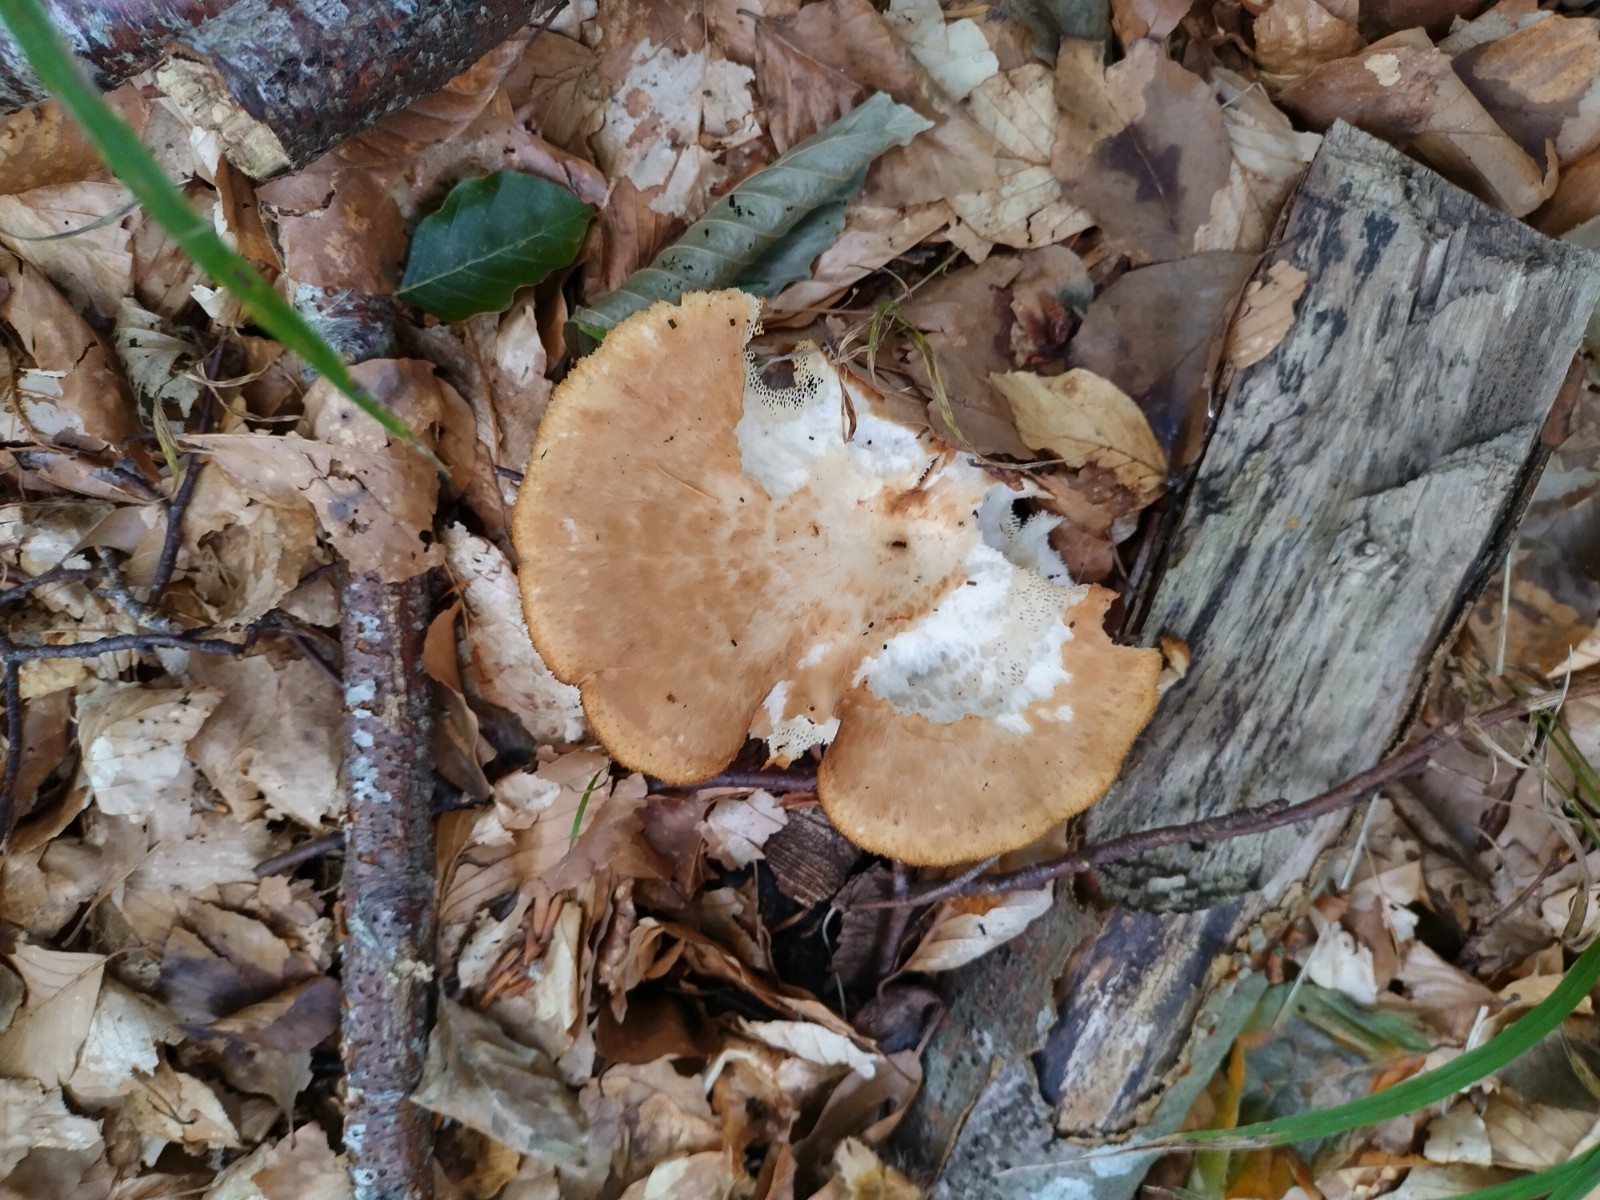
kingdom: Fungi
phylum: Basidiomycota
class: Agaricomycetes
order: Polyporales
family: Polyporaceae
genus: Polyporus
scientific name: Polyporus tuberaster
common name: knoldet stilkporesvamp
